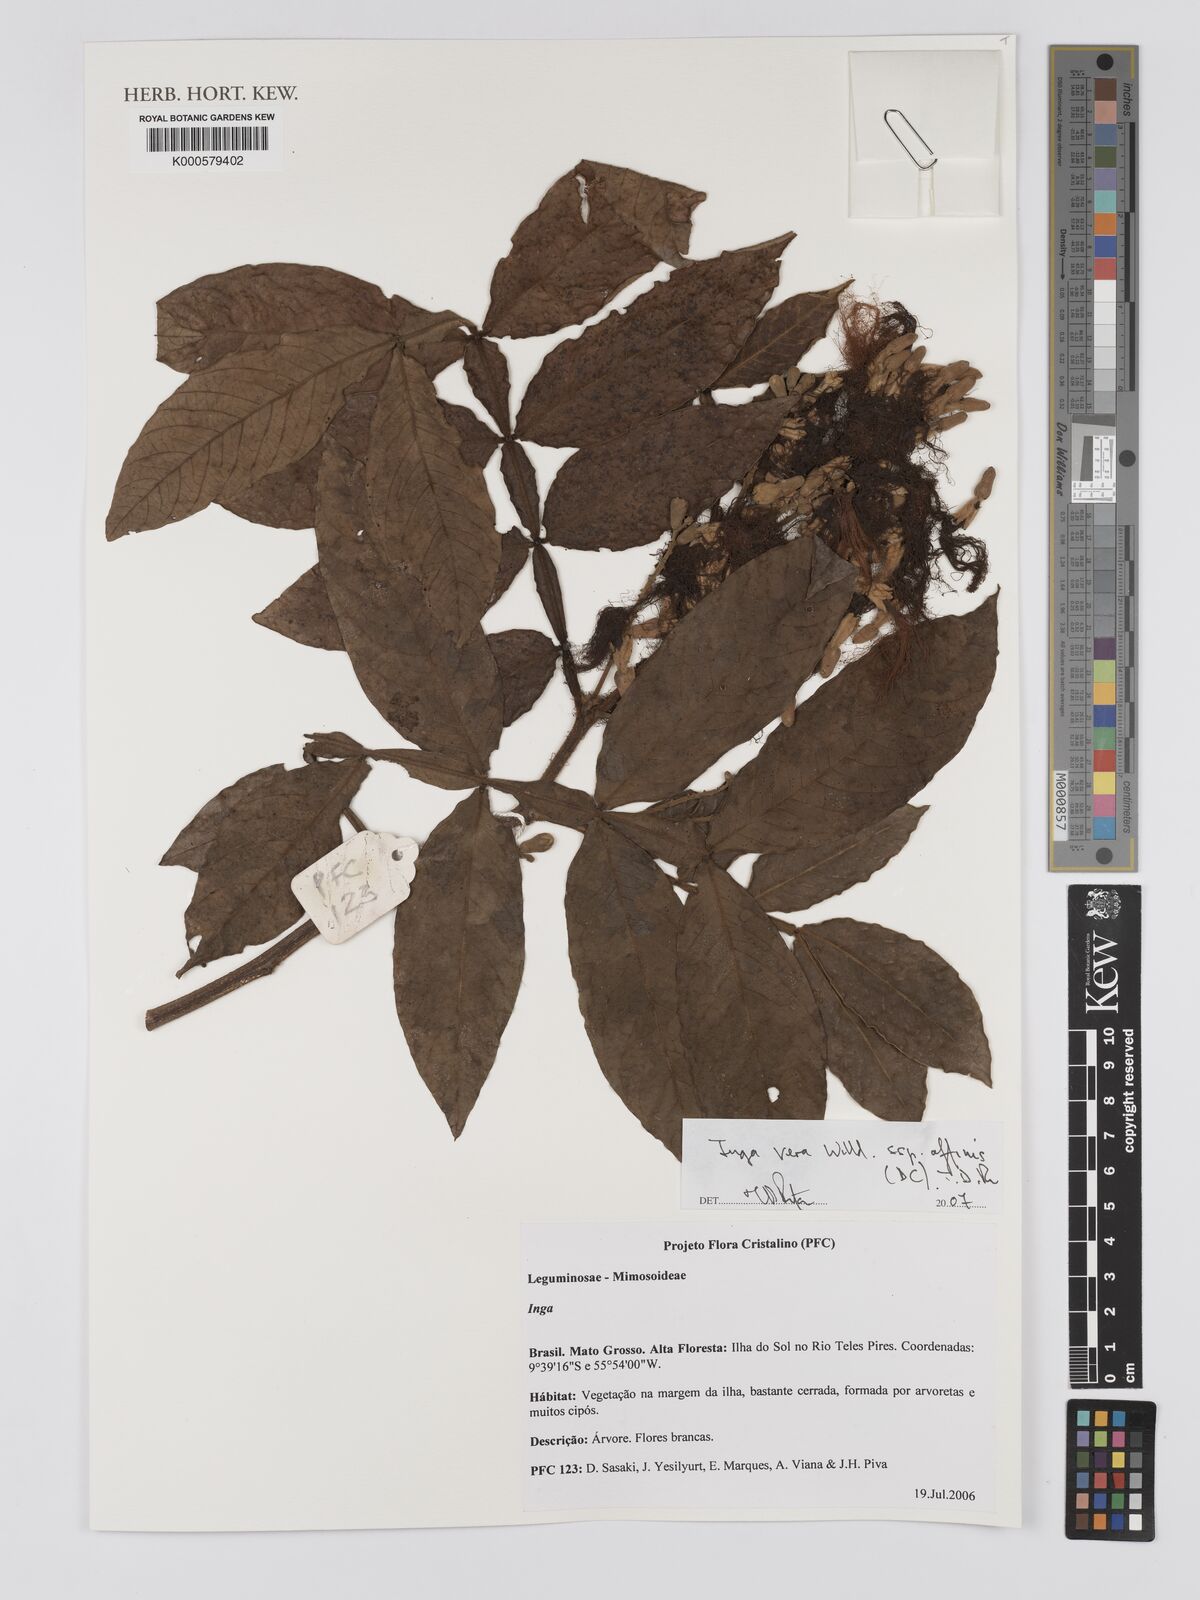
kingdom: Plantae
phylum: Tracheophyta
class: Magnoliopsida
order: Fabales
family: Fabaceae
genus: Inga
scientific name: Inga vera
